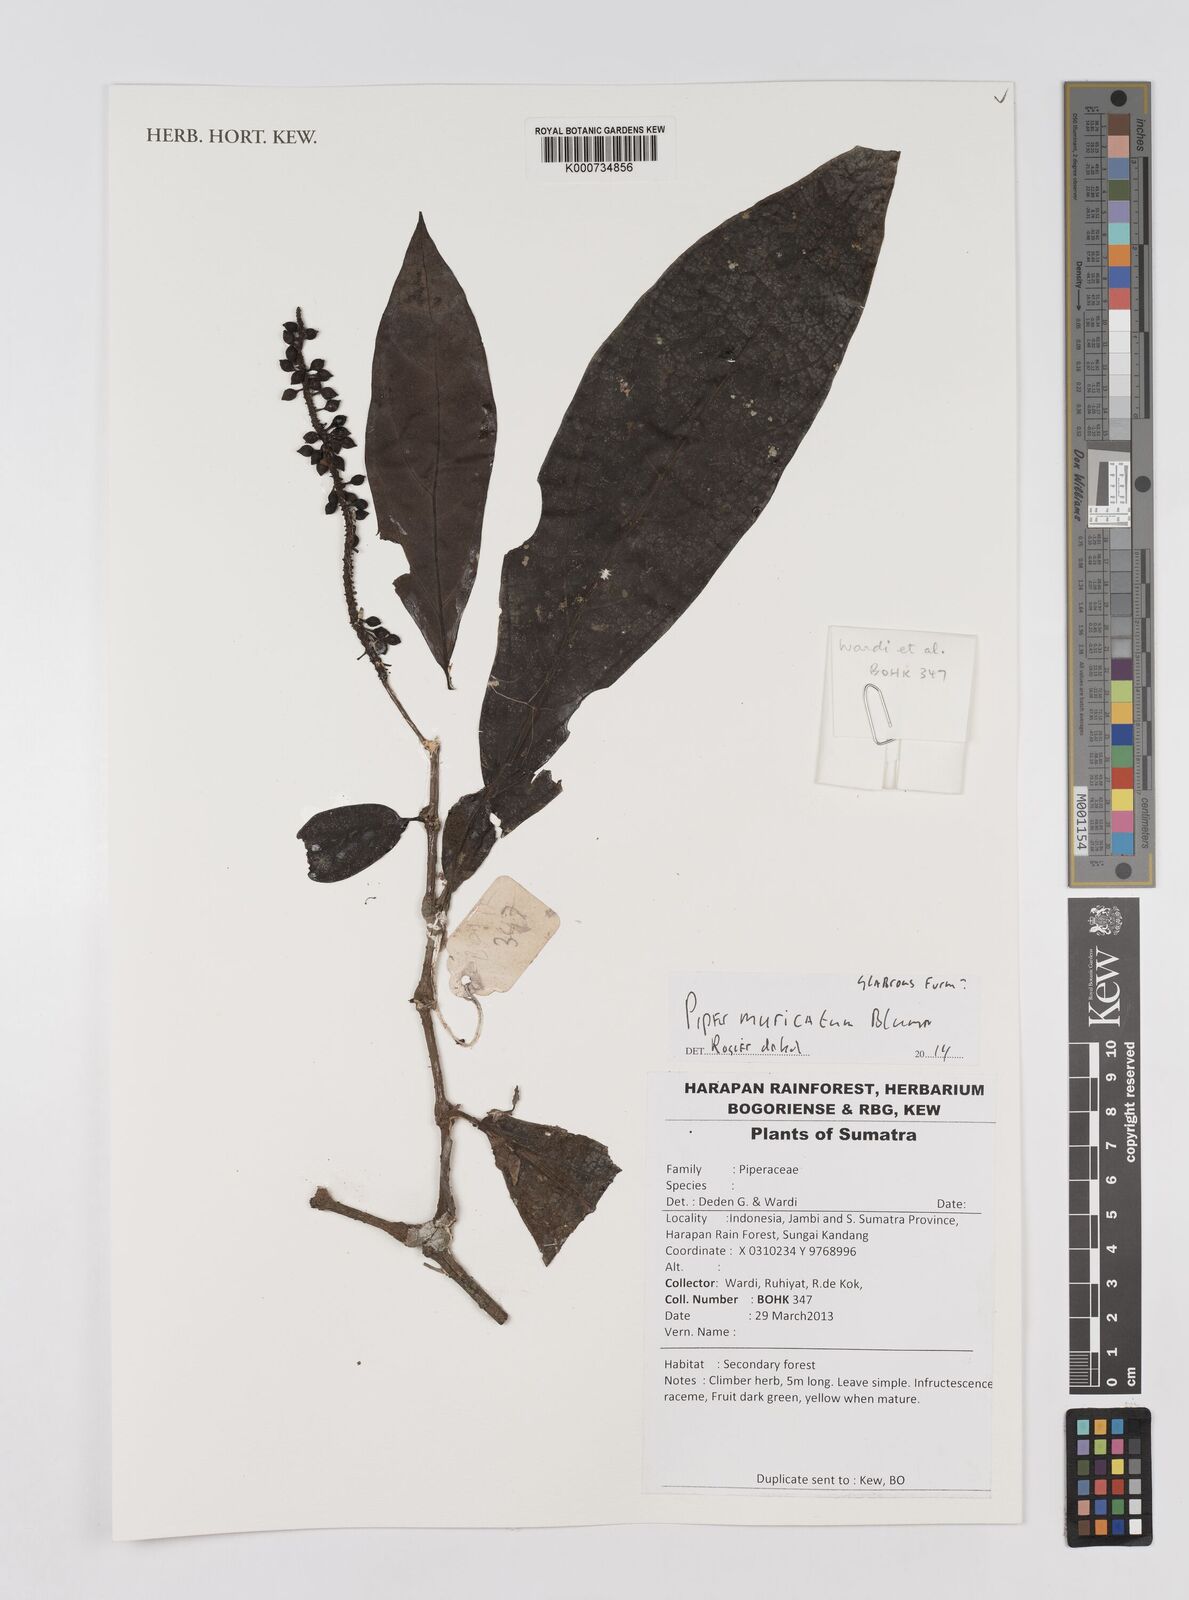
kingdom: Plantae
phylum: Tracheophyta
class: Magnoliopsida
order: Piperales
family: Piperaceae
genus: Piper
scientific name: Piper muricatum
